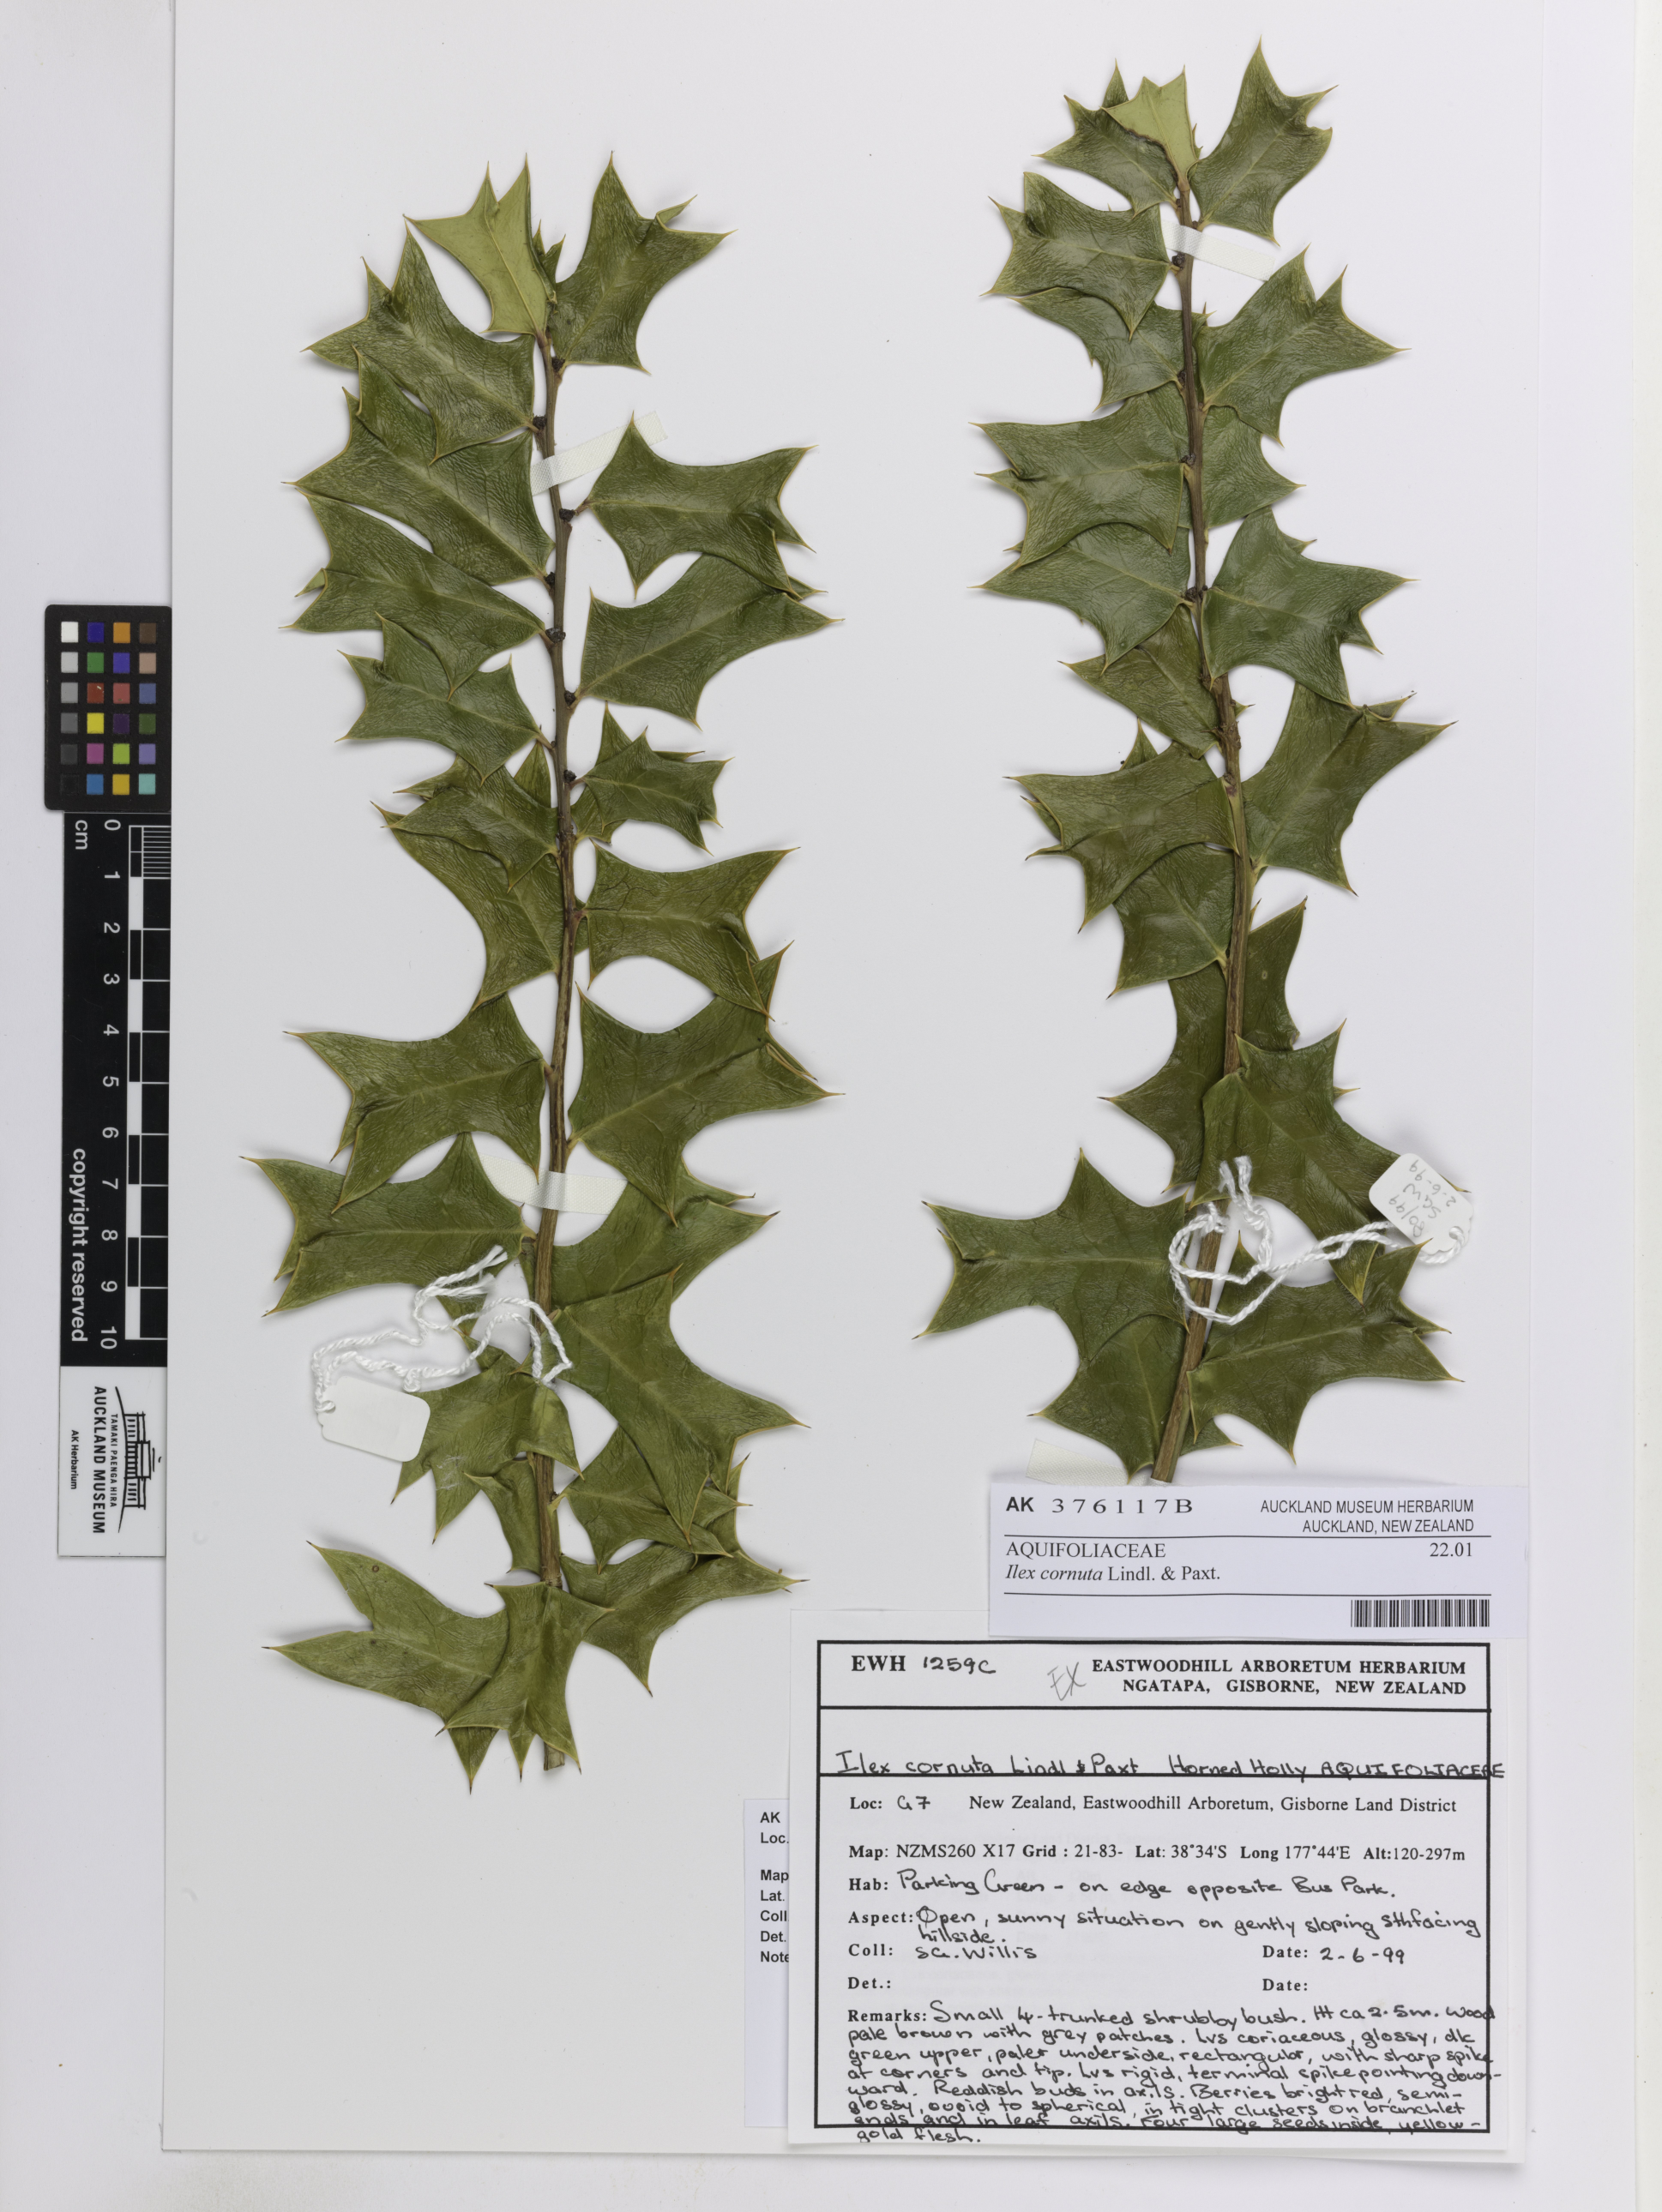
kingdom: Plantae
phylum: Tracheophyta
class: Magnoliopsida
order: Aquifoliales
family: Aquifoliaceae
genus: Ilex
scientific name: Ilex cornuta
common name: Chinese holly
